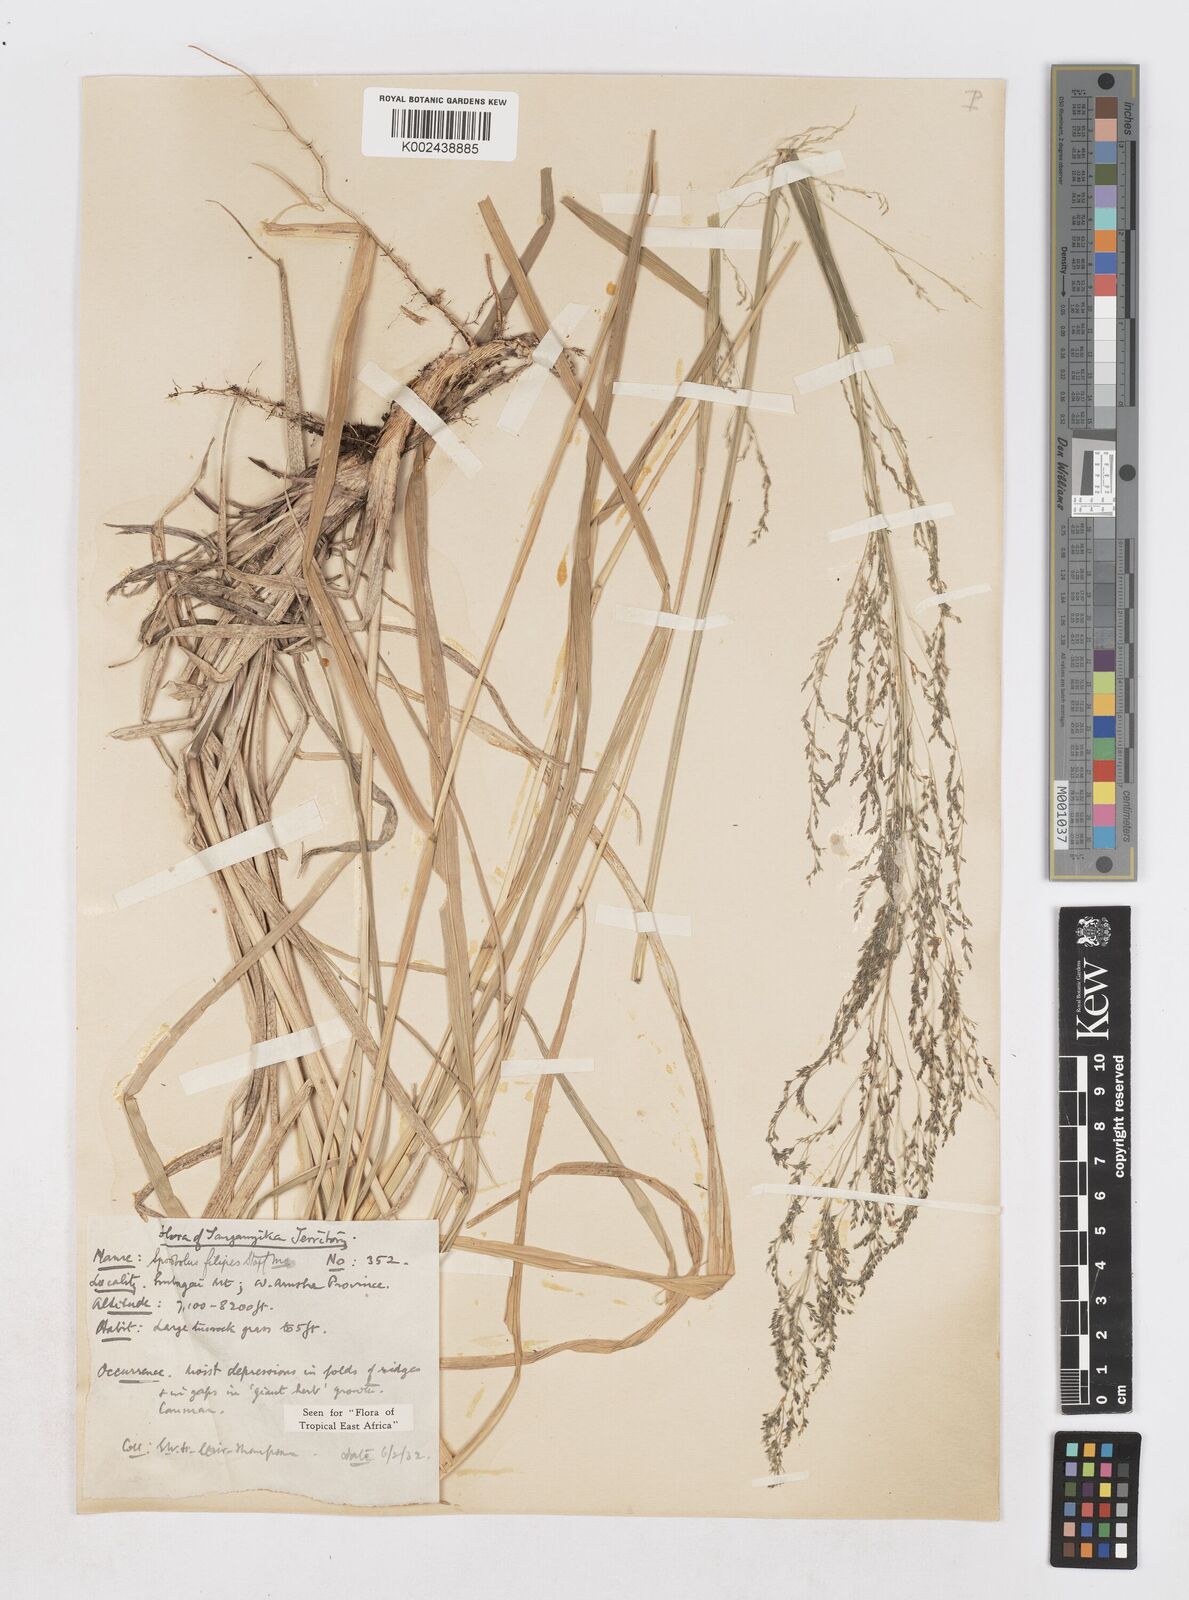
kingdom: Plantae
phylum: Tracheophyta
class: Liliopsida
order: Poales
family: Poaceae
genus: Sporobolus
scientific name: Sporobolus agrostoides
